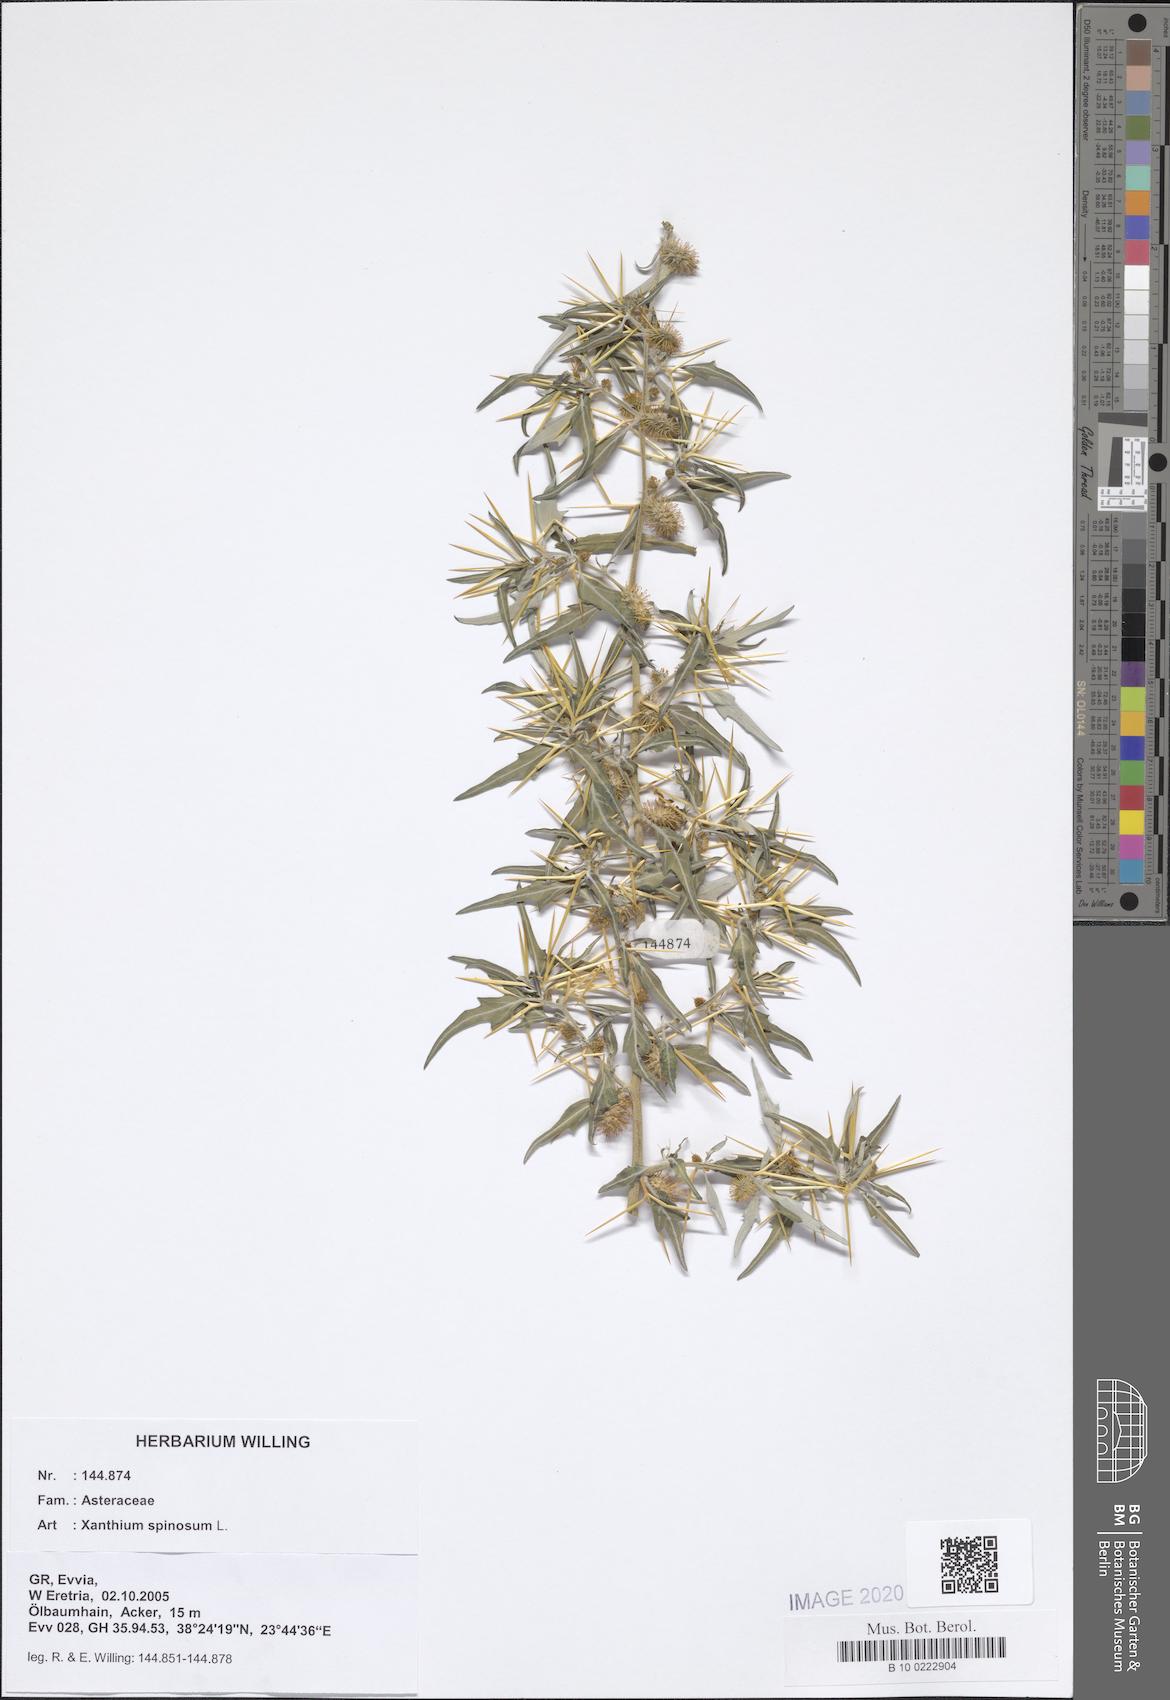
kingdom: Plantae
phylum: Tracheophyta
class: Magnoliopsida
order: Asterales
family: Asteraceae
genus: Xanthium
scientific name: Xanthium spinosum
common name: Spiny cocklebur
